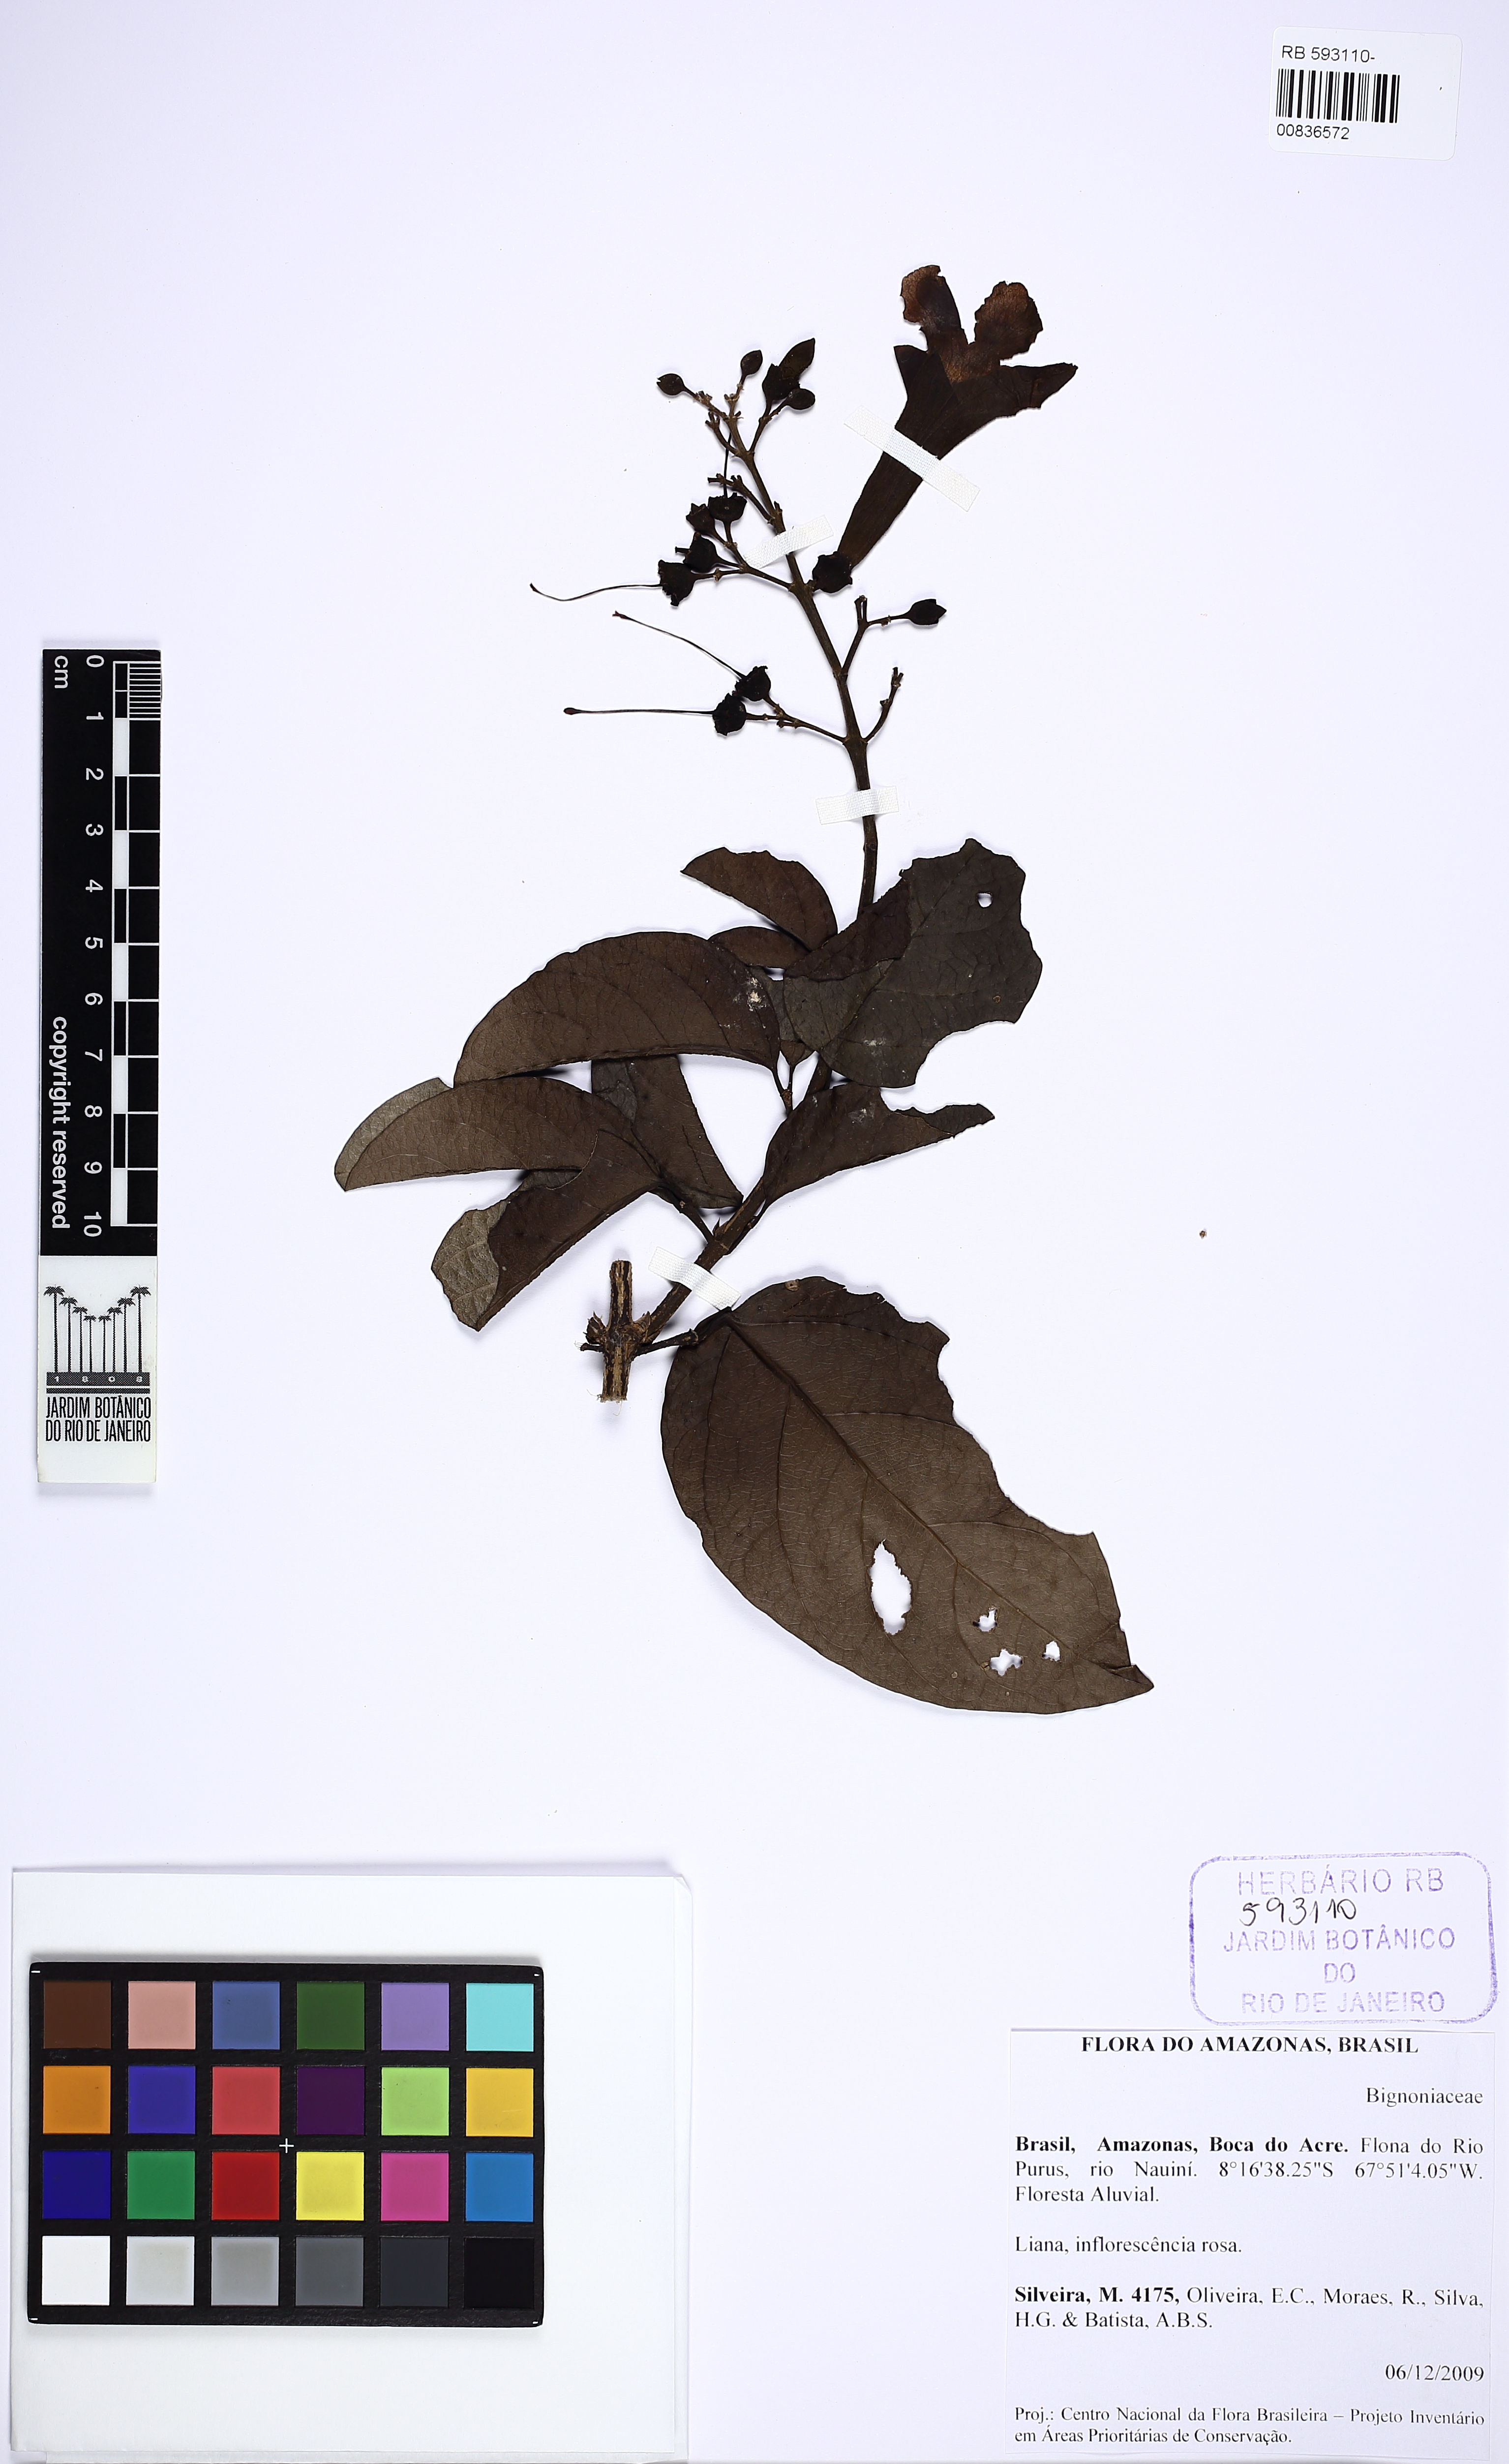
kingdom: Plantae
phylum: Tracheophyta
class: Magnoliopsida
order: Lamiales
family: Bignoniaceae
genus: Tanaecium
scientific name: Tanaecium pyramidatum
